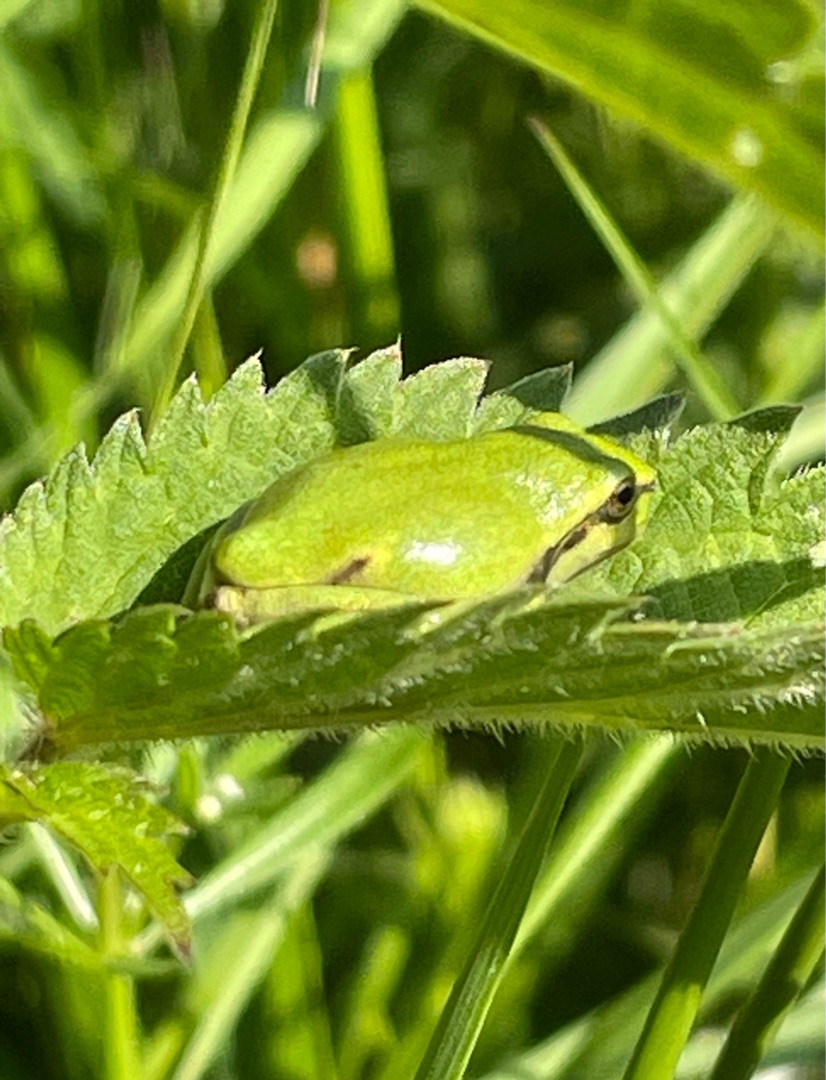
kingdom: Animalia
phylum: Chordata
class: Amphibia
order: Anura
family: Hylidae
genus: Hyla
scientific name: Hyla arborea
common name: Løvfrø
